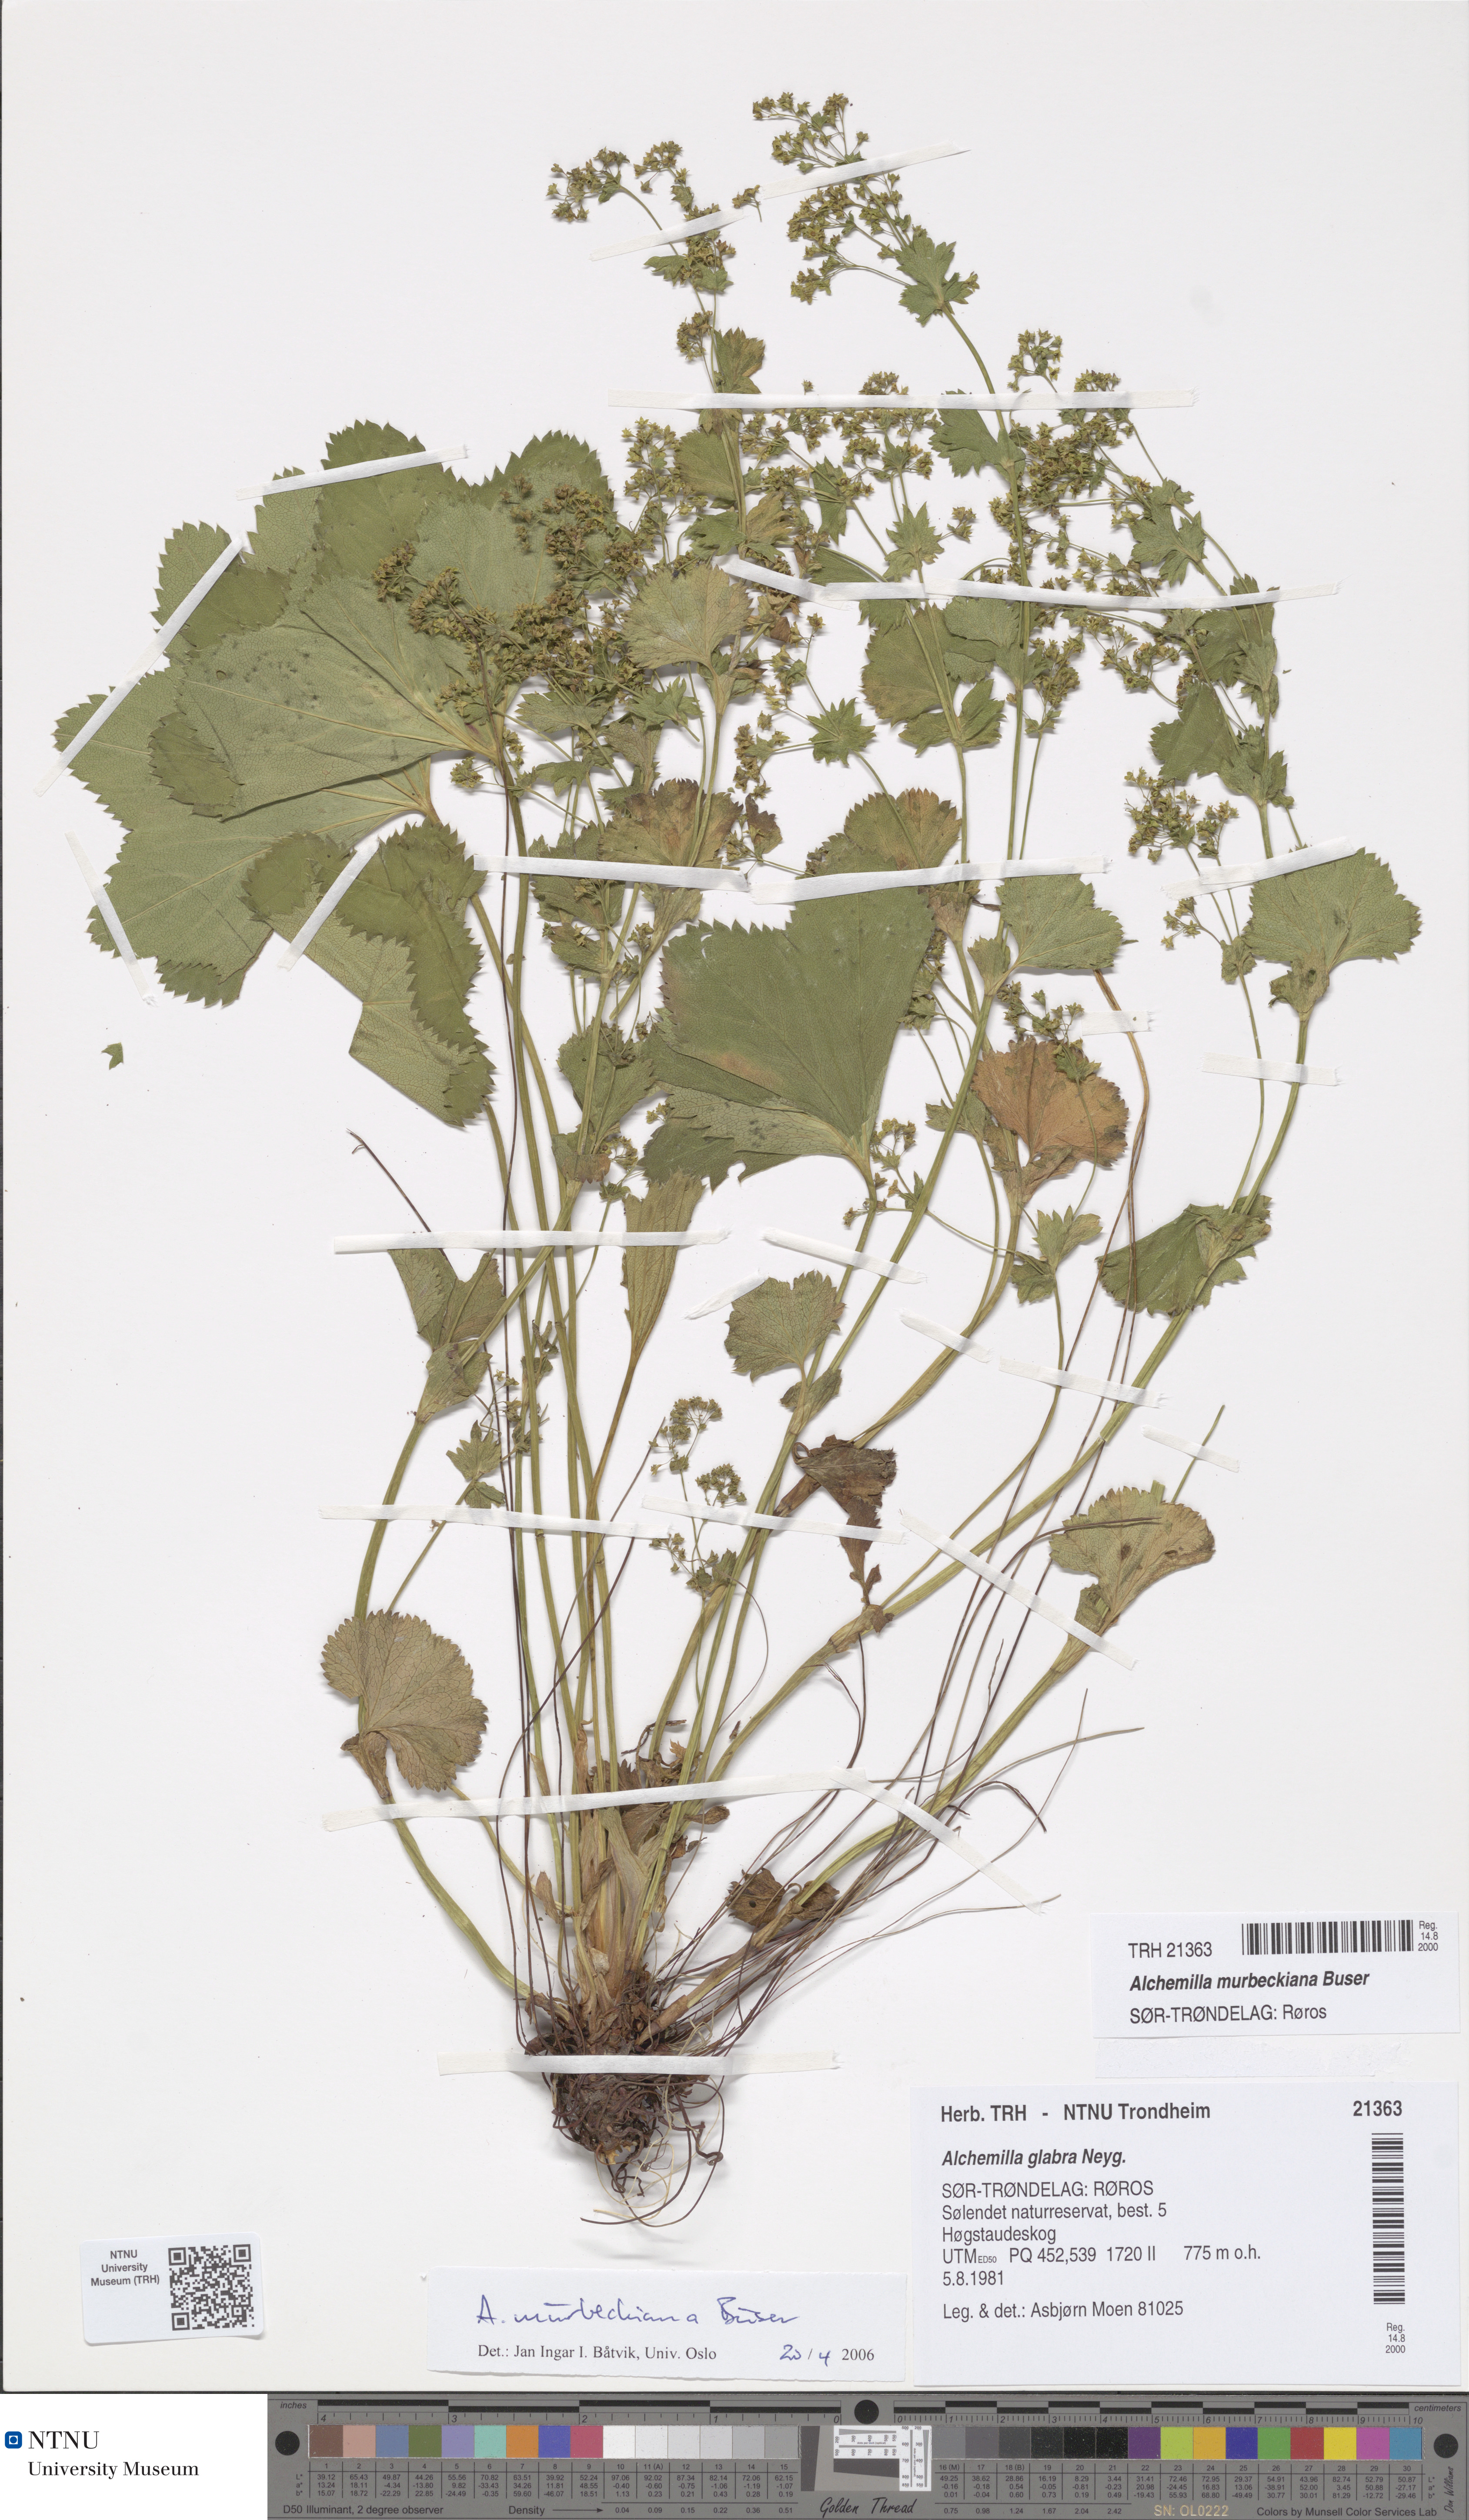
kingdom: Plantae
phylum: Tracheophyta
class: Magnoliopsida
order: Rosales
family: Rosaceae
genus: Alchemilla
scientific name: Alchemilla murbeckiana
